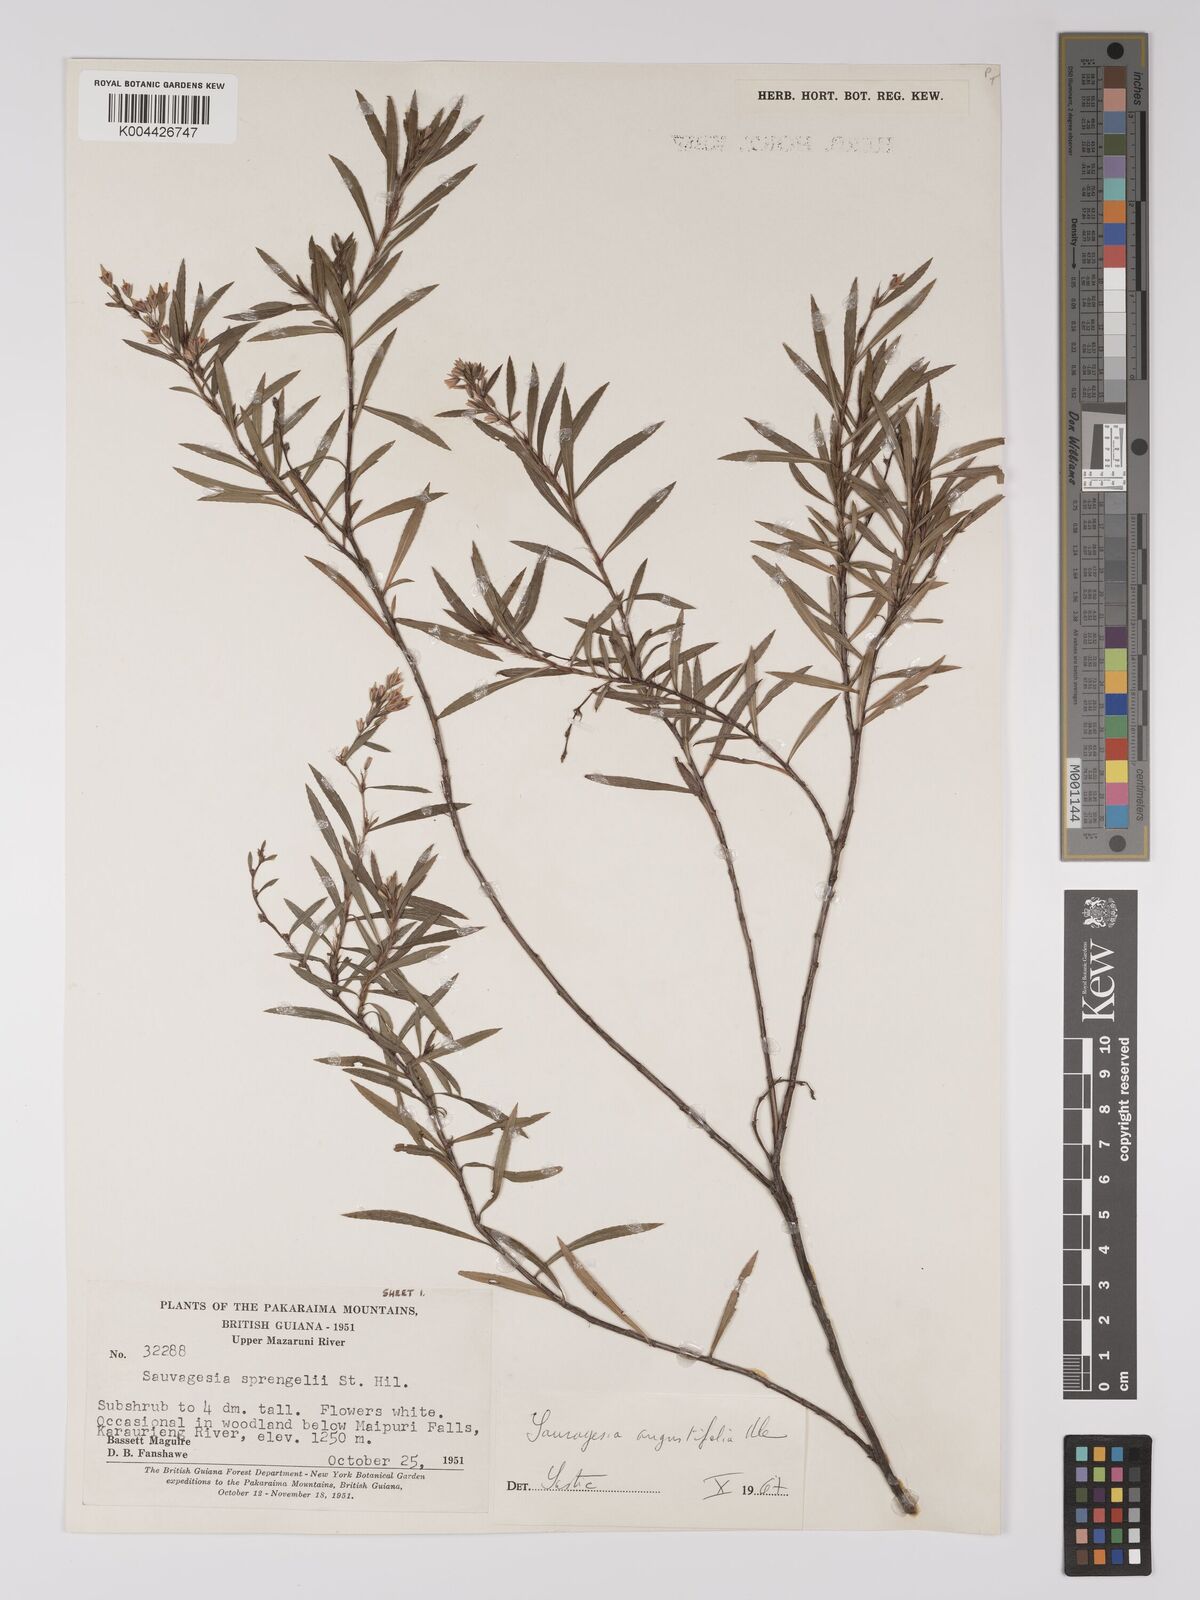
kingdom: Plantae
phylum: Tracheophyta
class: Magnoliopsida
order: Malpighiales
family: Ochnaceae
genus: Sauvagesia
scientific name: Sauvagesia angustifolia
